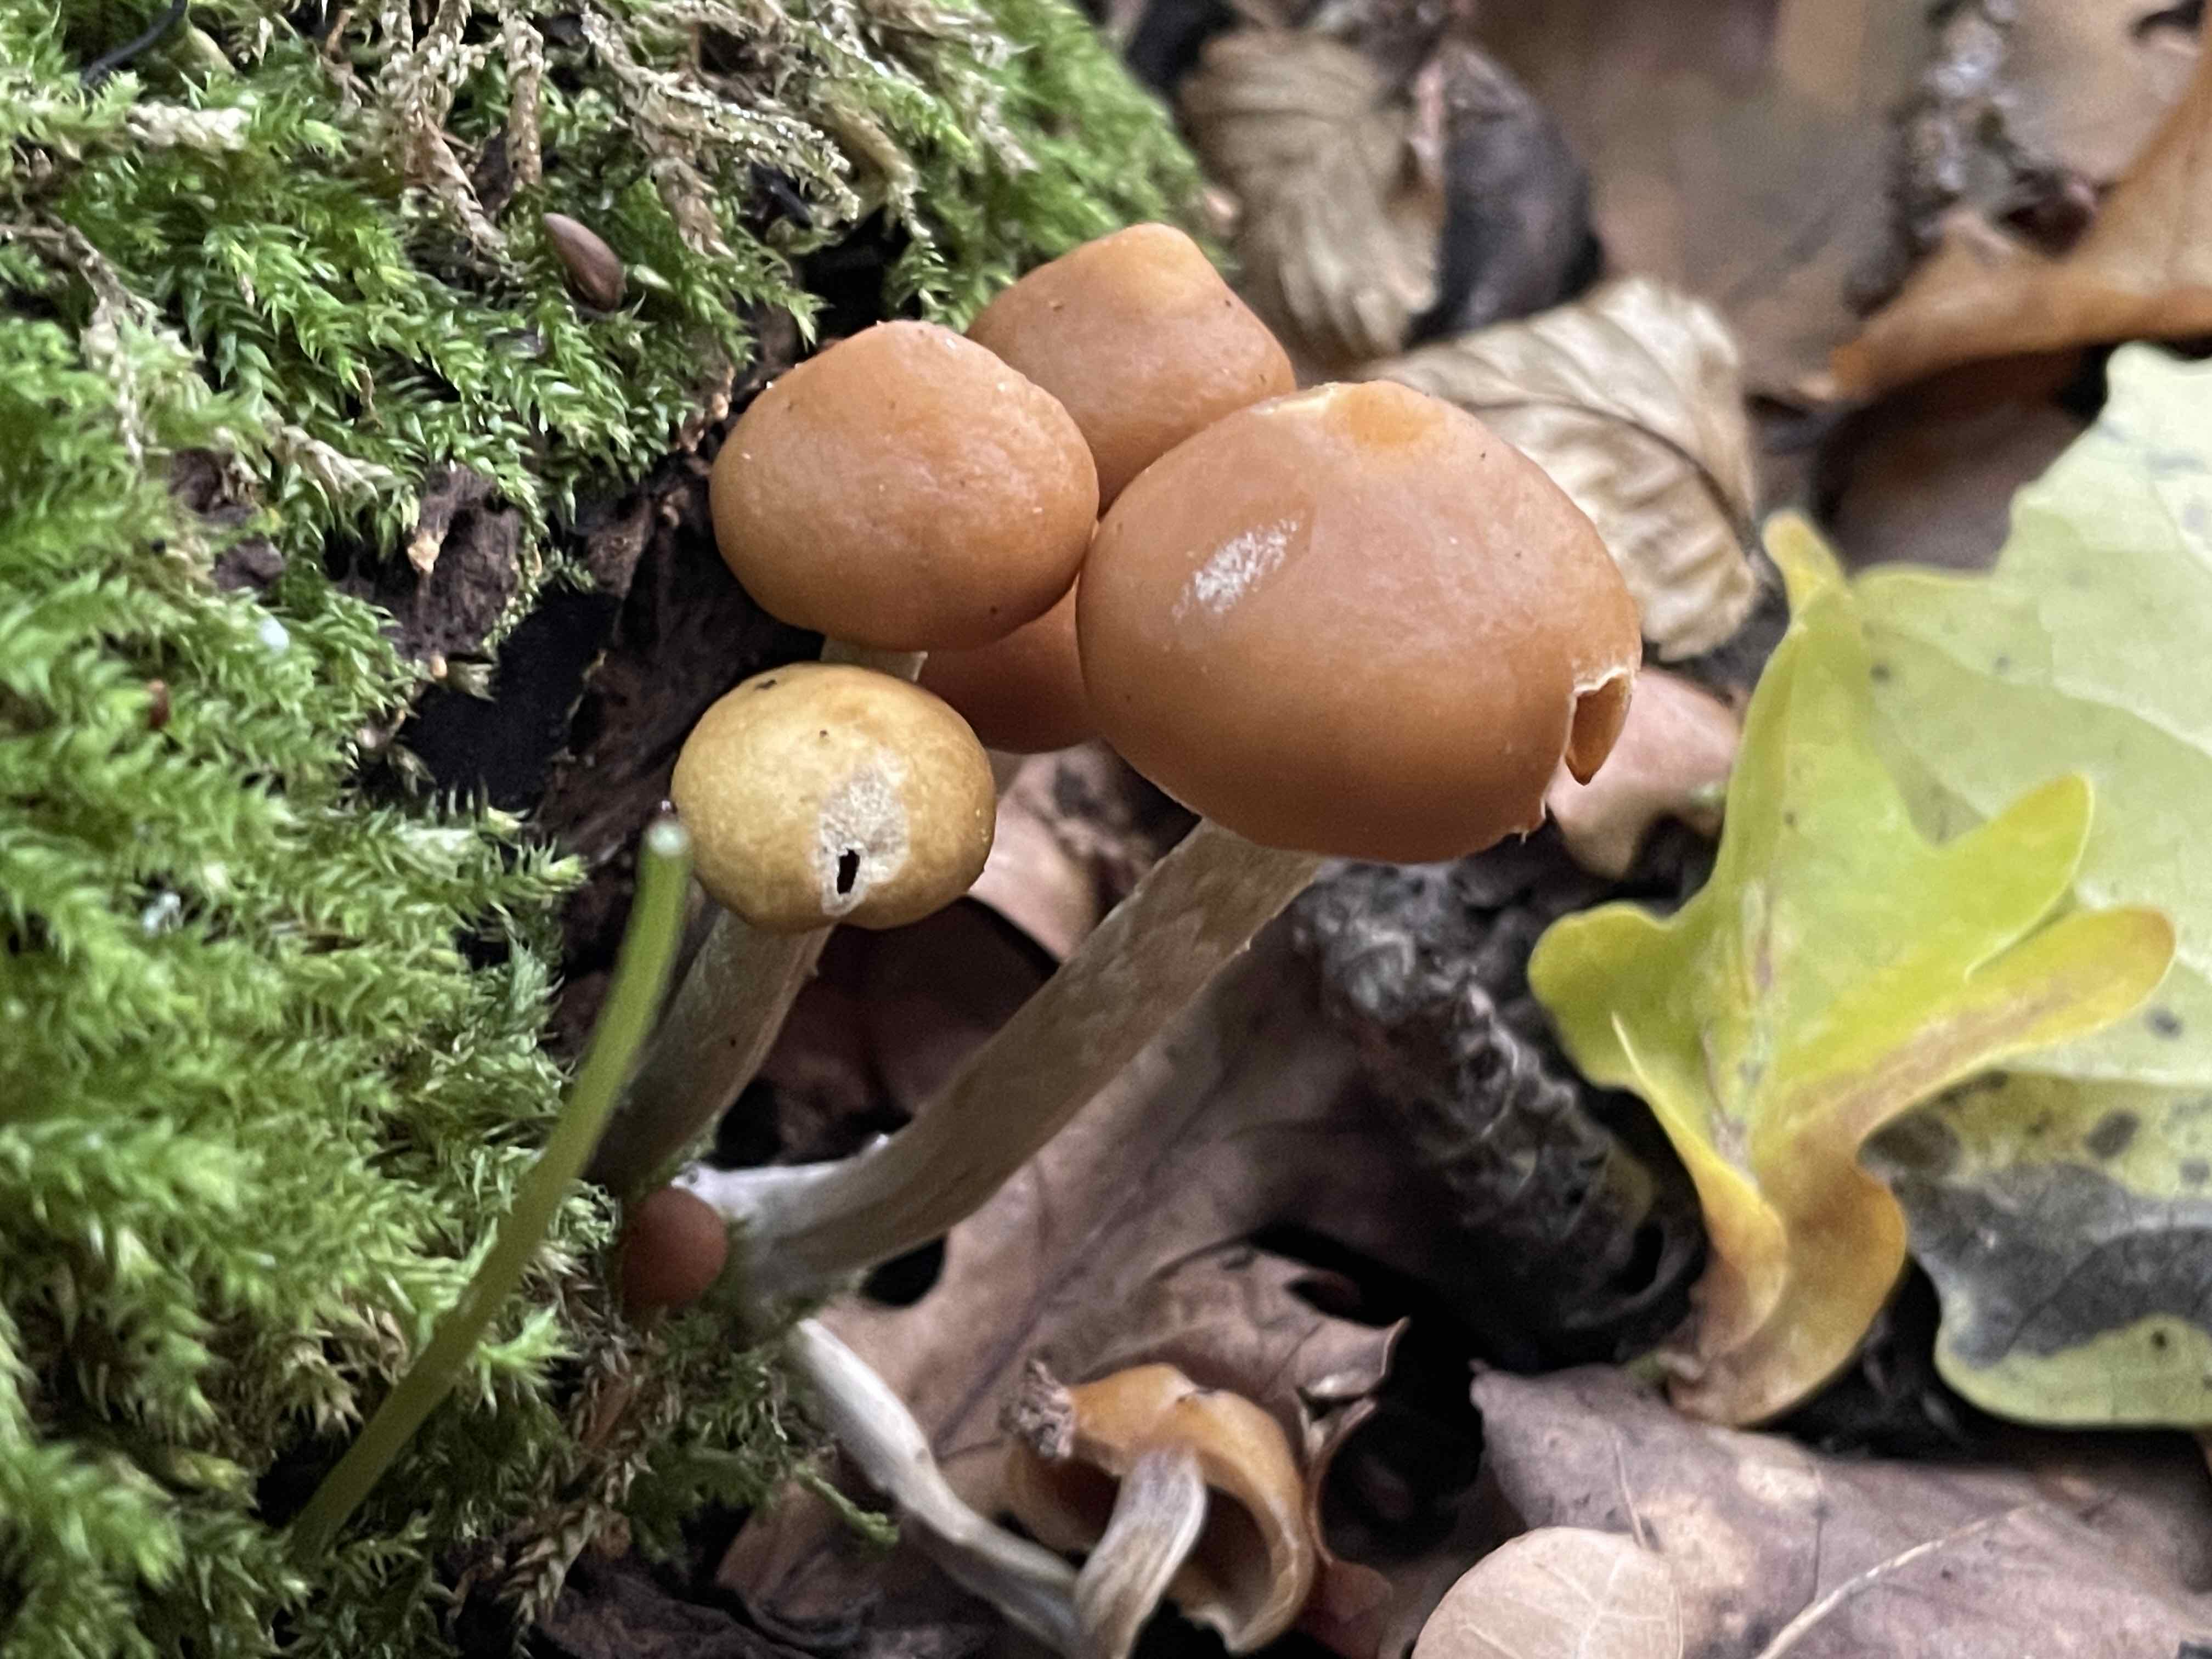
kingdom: Fungi
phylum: Basidiomycota
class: Agaricomycetes
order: Agaricales
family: Hymenogastraceae
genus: Galerina
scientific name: Galerina marginata
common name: randbæltet hjelmhat
